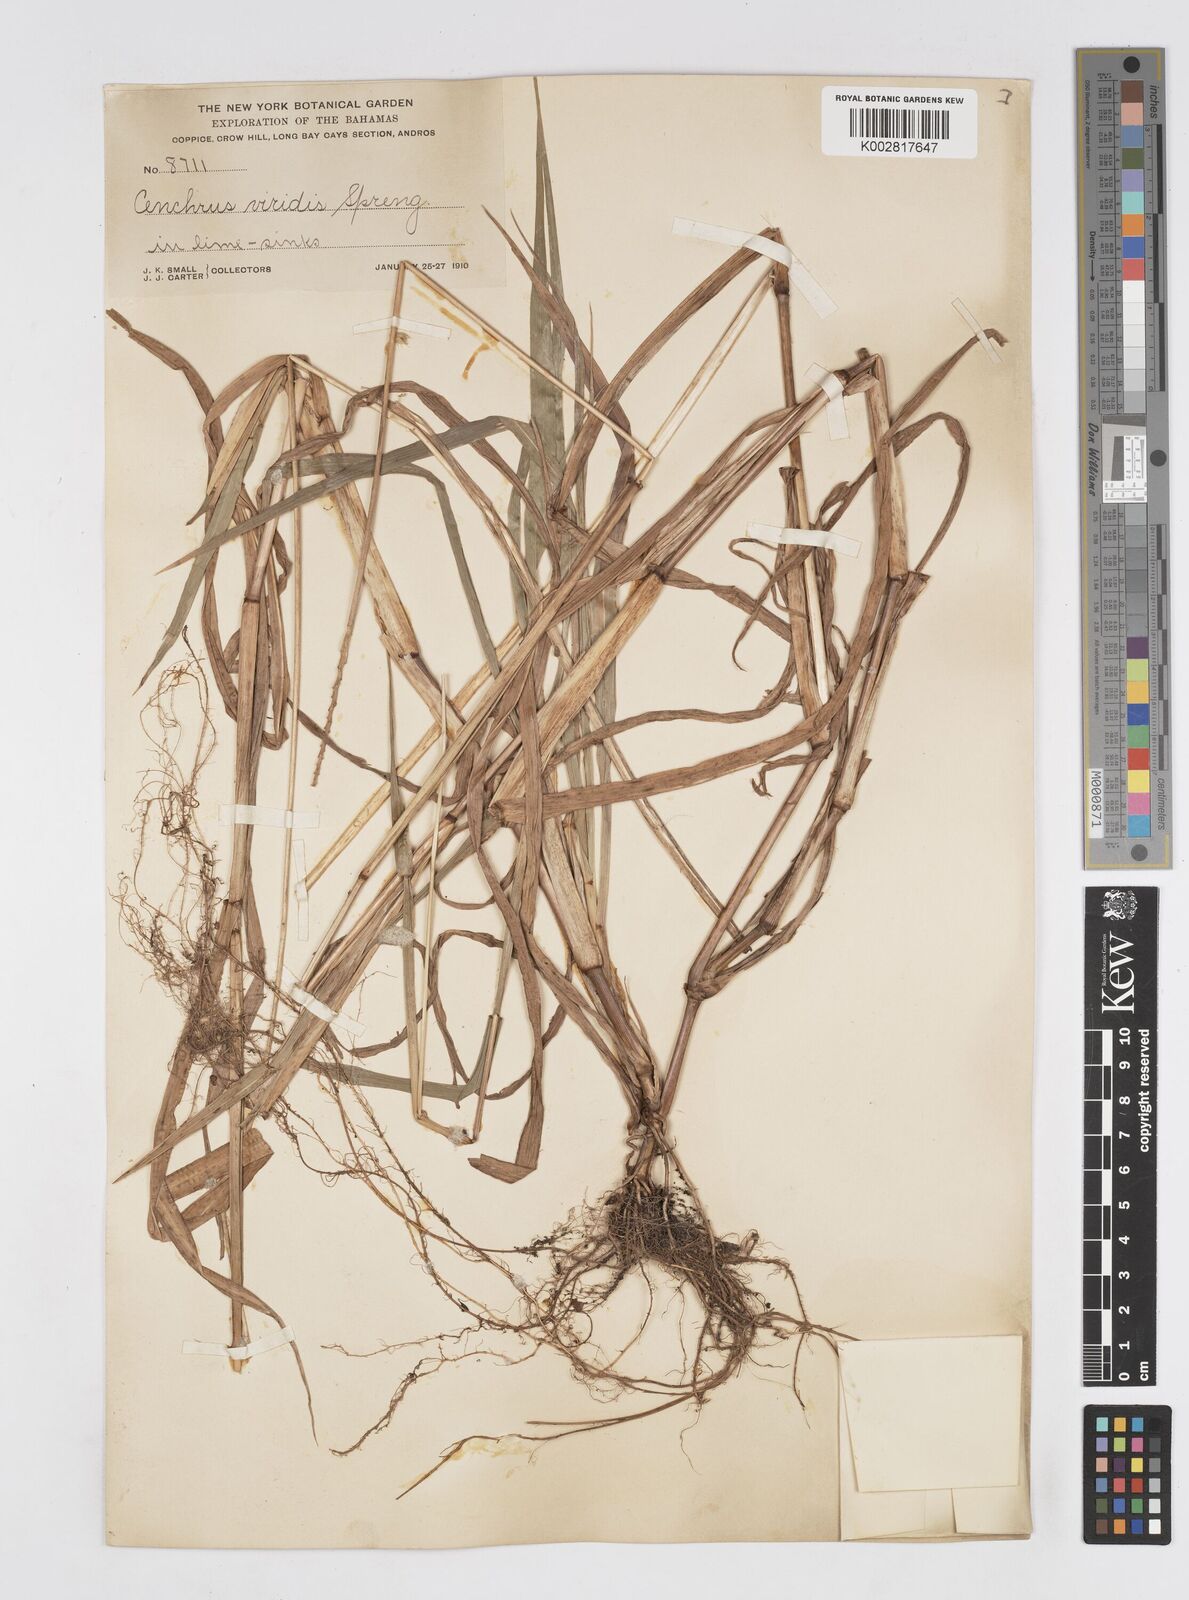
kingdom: Plantae
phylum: Tracheophyta
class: Liliopsida
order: Poales
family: Poaceae
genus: Cenchrus
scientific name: Cenchrus brownii
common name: Slim-bristle sandbur
